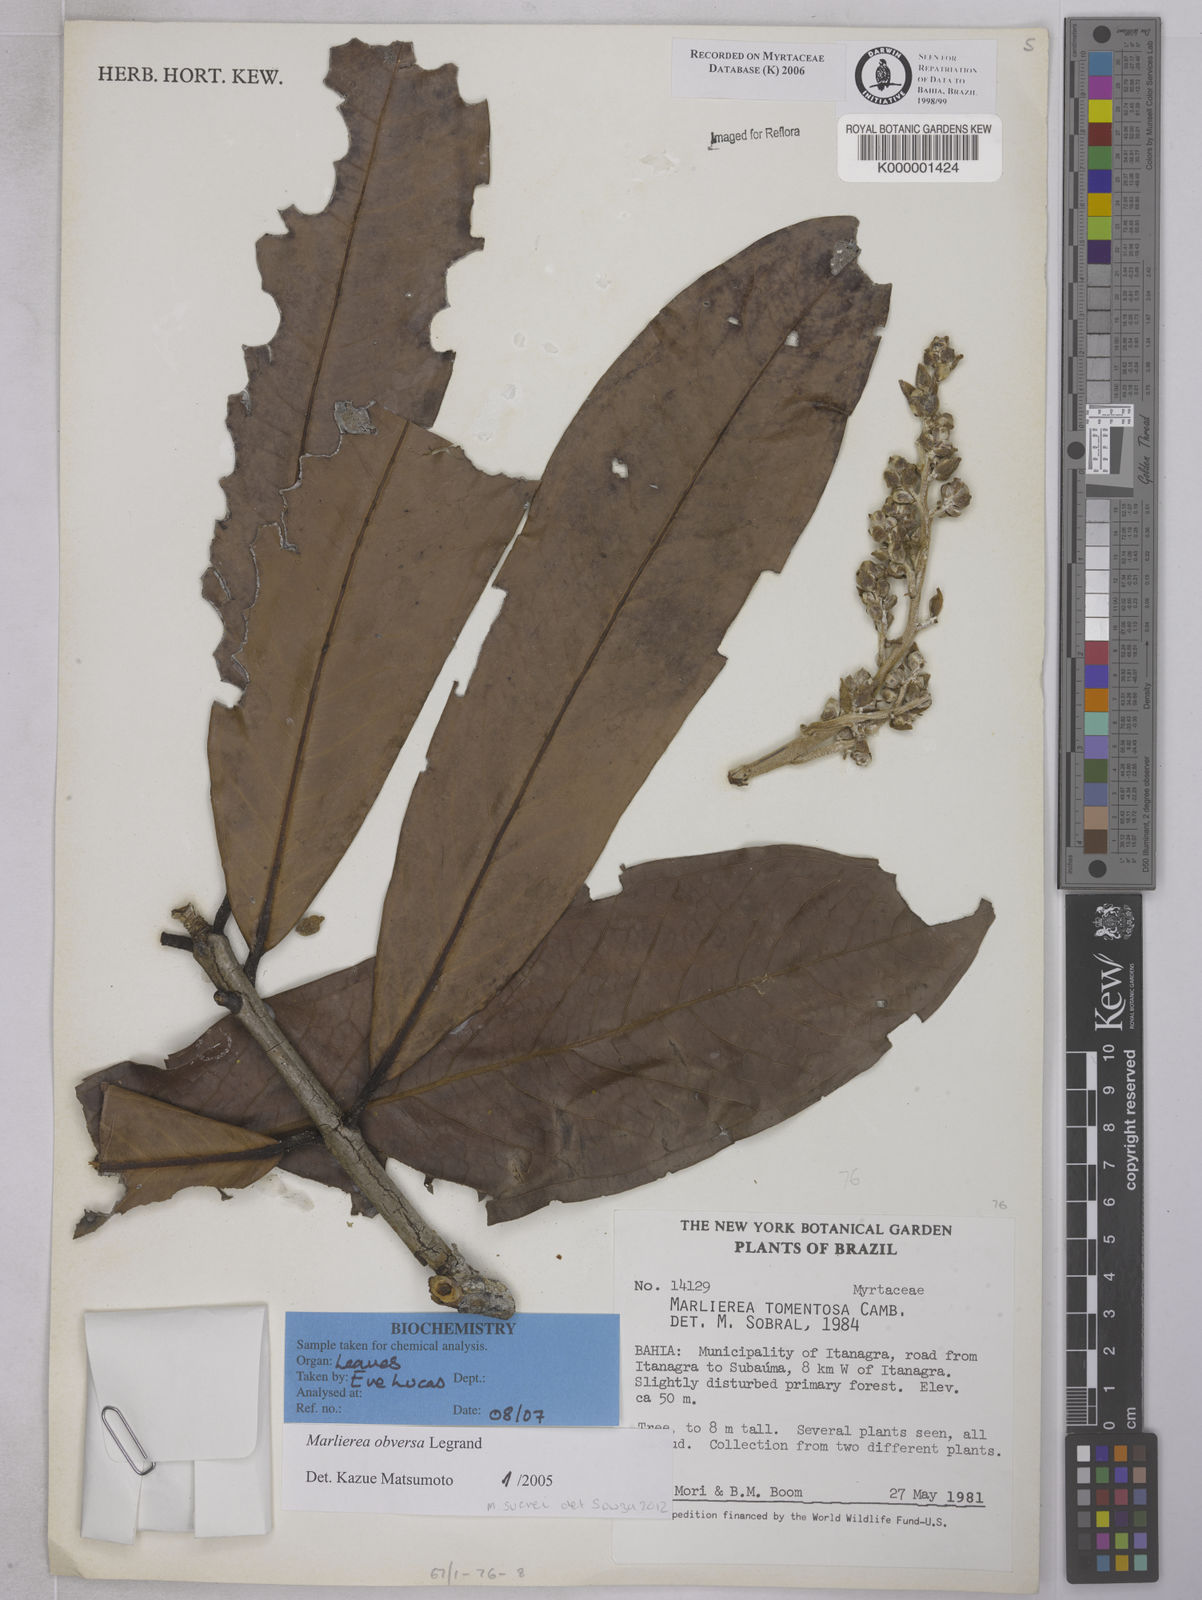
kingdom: Plantae
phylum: Tracheophyta
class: Magnoliopsida
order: Myrtales
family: Myrtaceae
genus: Myrcia
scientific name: Myrcia neotomentosa
